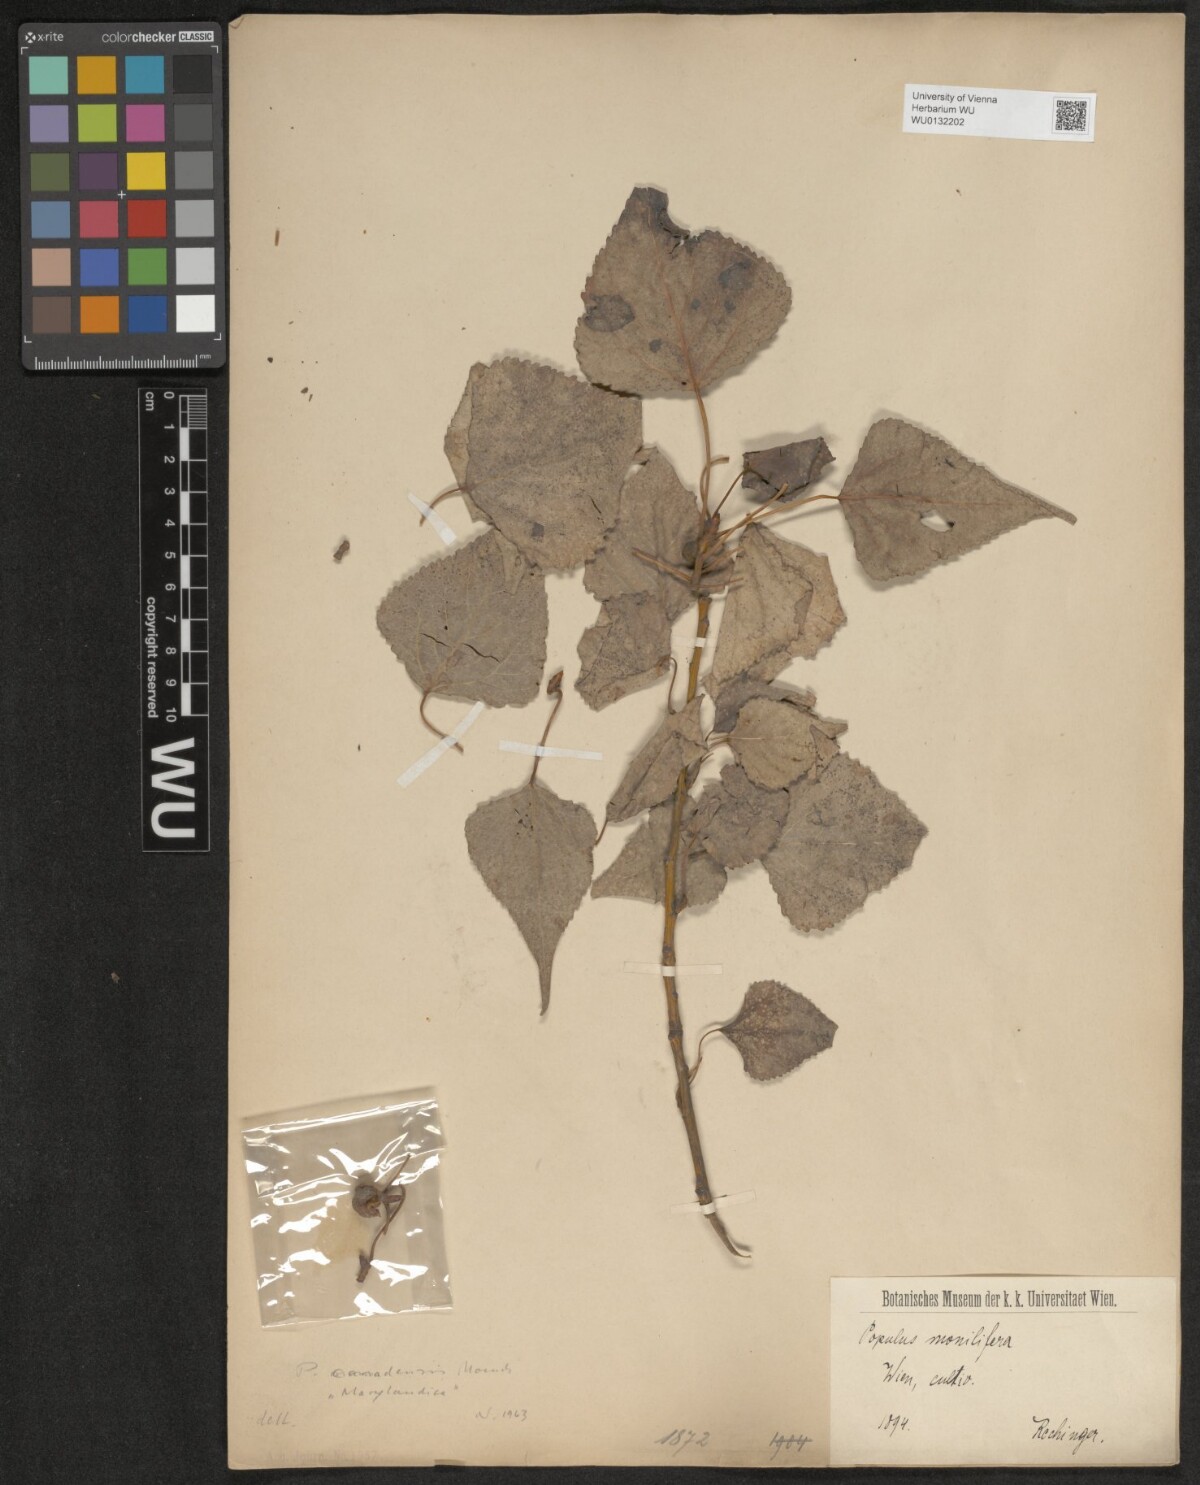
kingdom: Plantae
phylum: Tracheophyta
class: Magnoliopsida
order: Malpighiales
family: Salicaceae
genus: Populus
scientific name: Populus canadensis
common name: Carolina poplar
